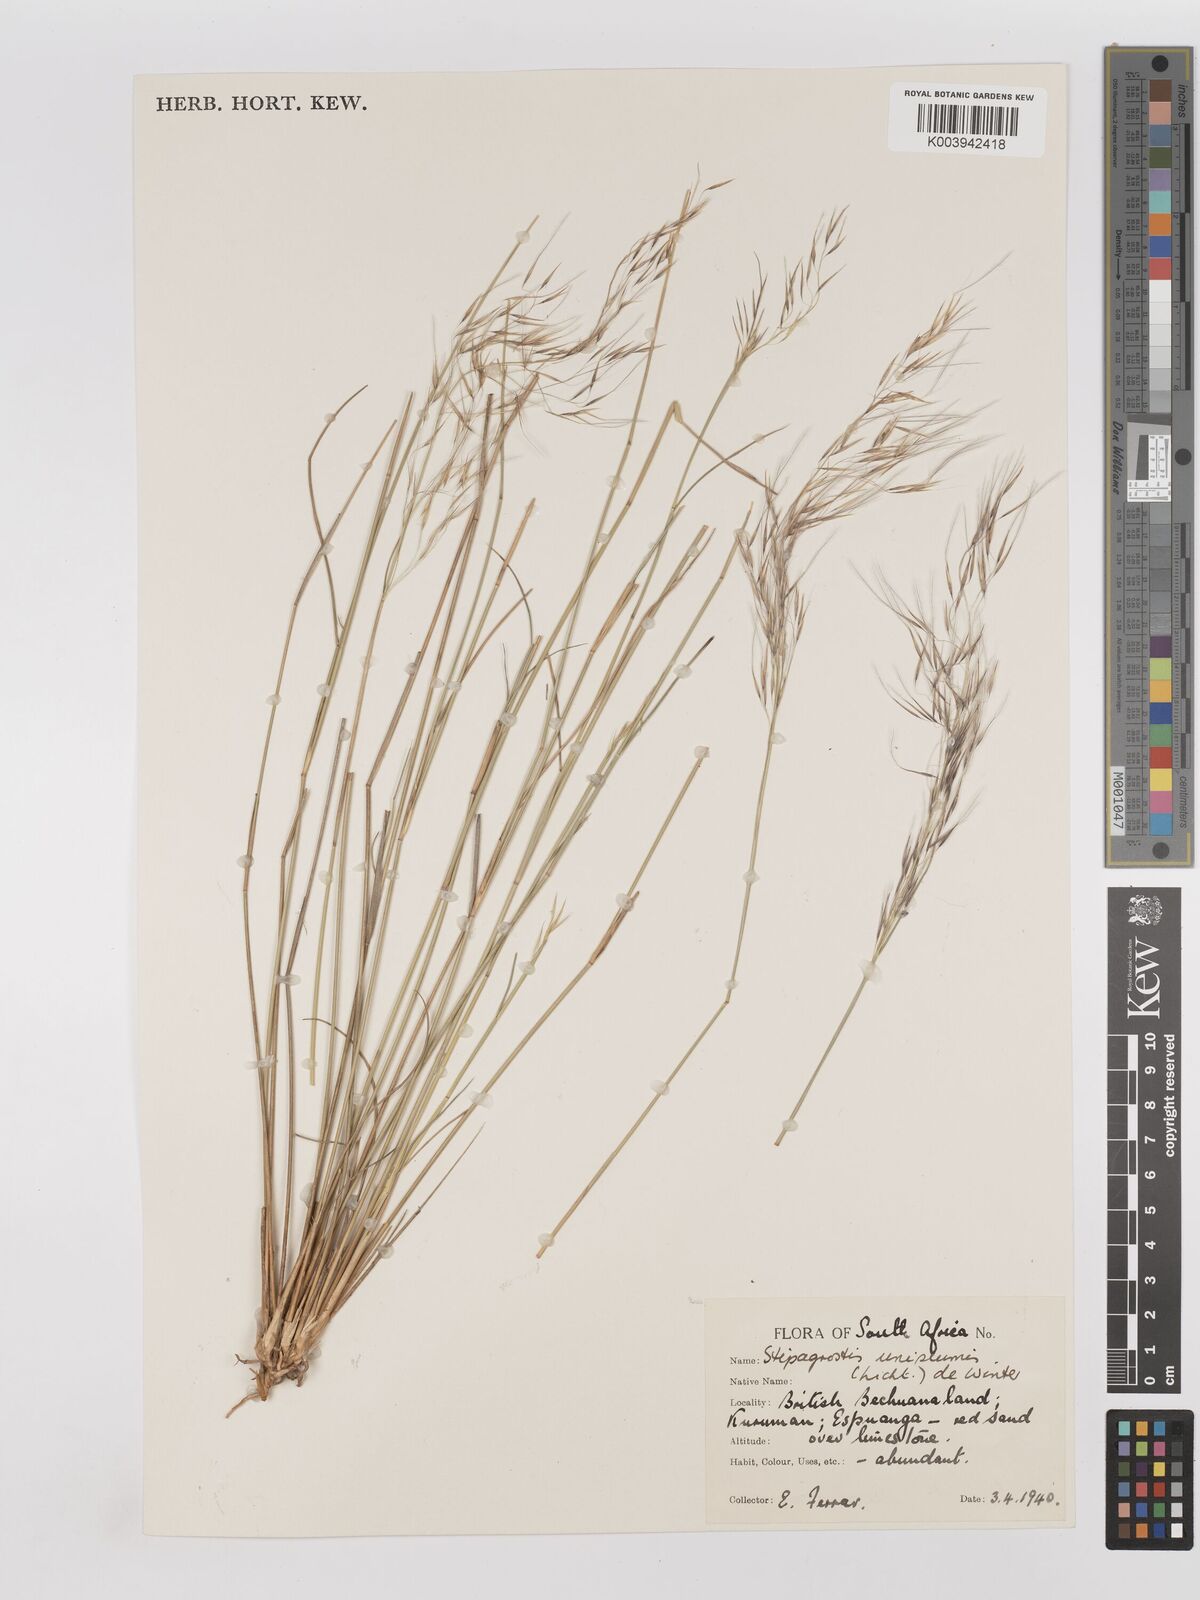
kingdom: Plantae
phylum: Tracheophyta
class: Liliopsida
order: Poales
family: Poaceae
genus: Stipagrostis
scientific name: Stipagrostis uniplumis
